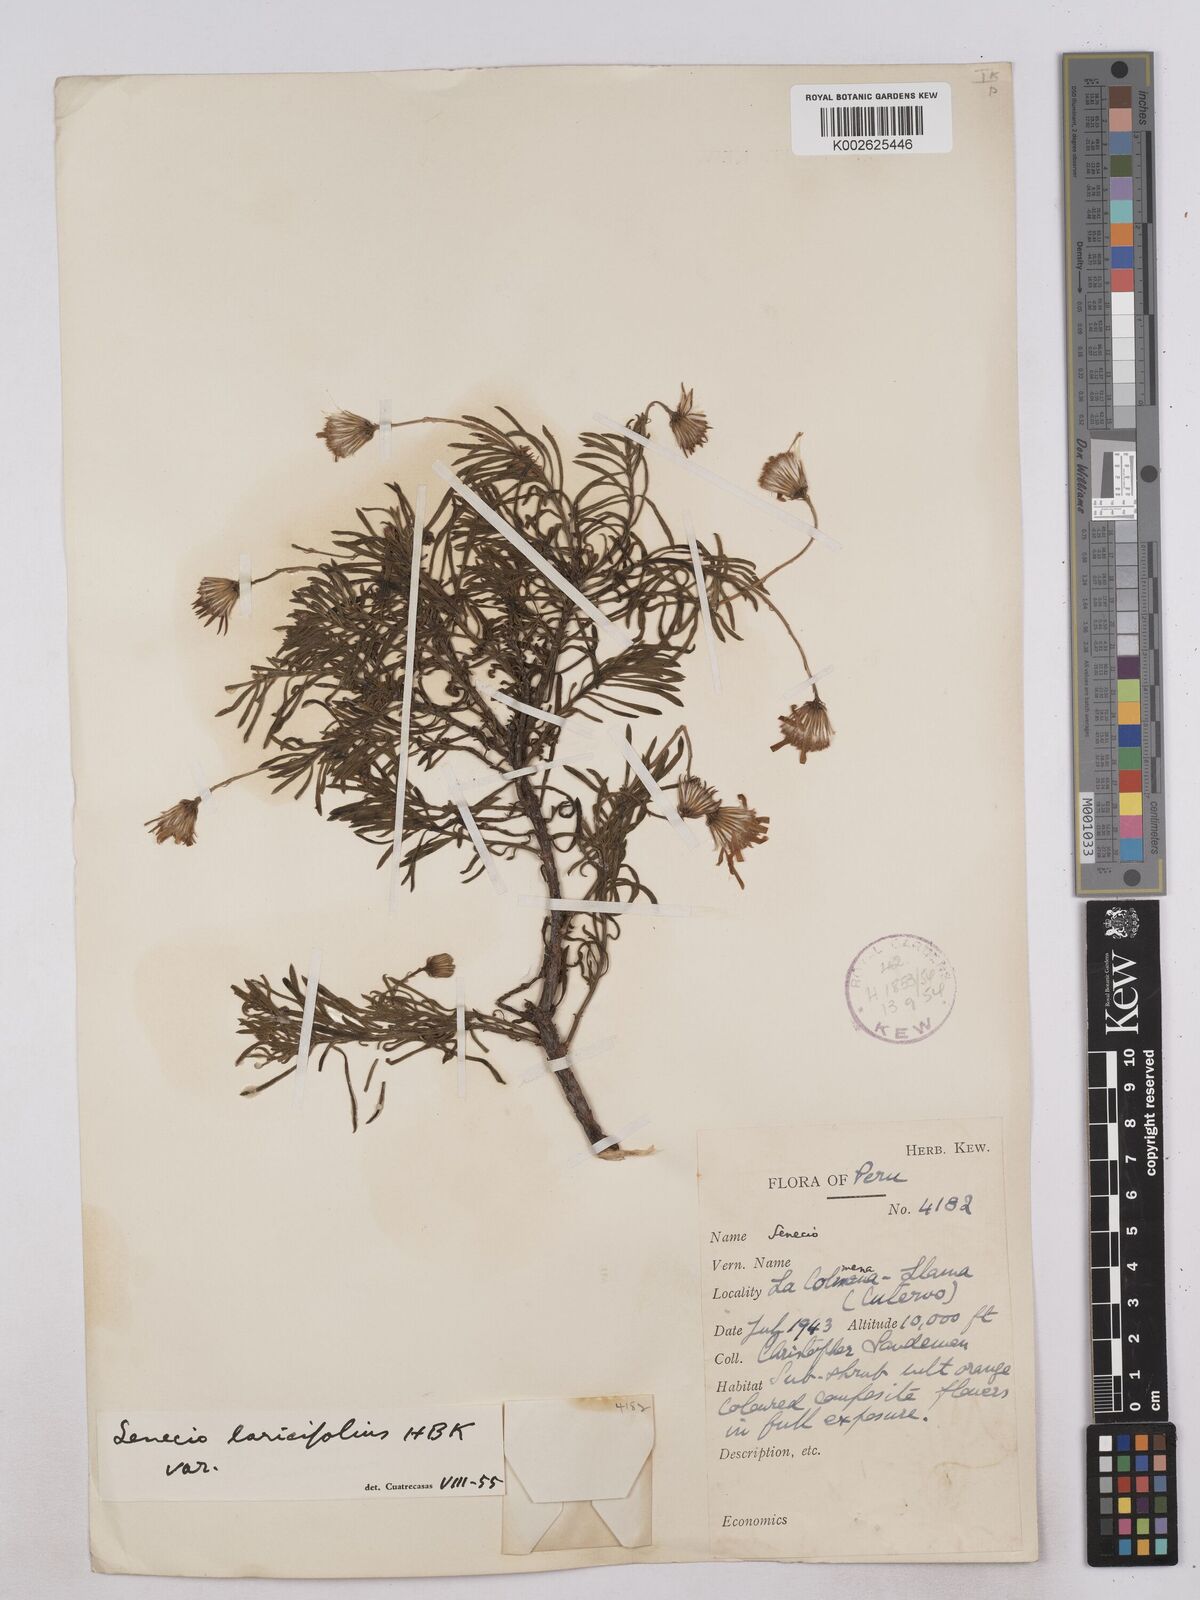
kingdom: Plantae
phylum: Tracheophyta
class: Magnoliopsida
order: Asterales
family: Asteraceae
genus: Senecio
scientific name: Senecio laricifolius
